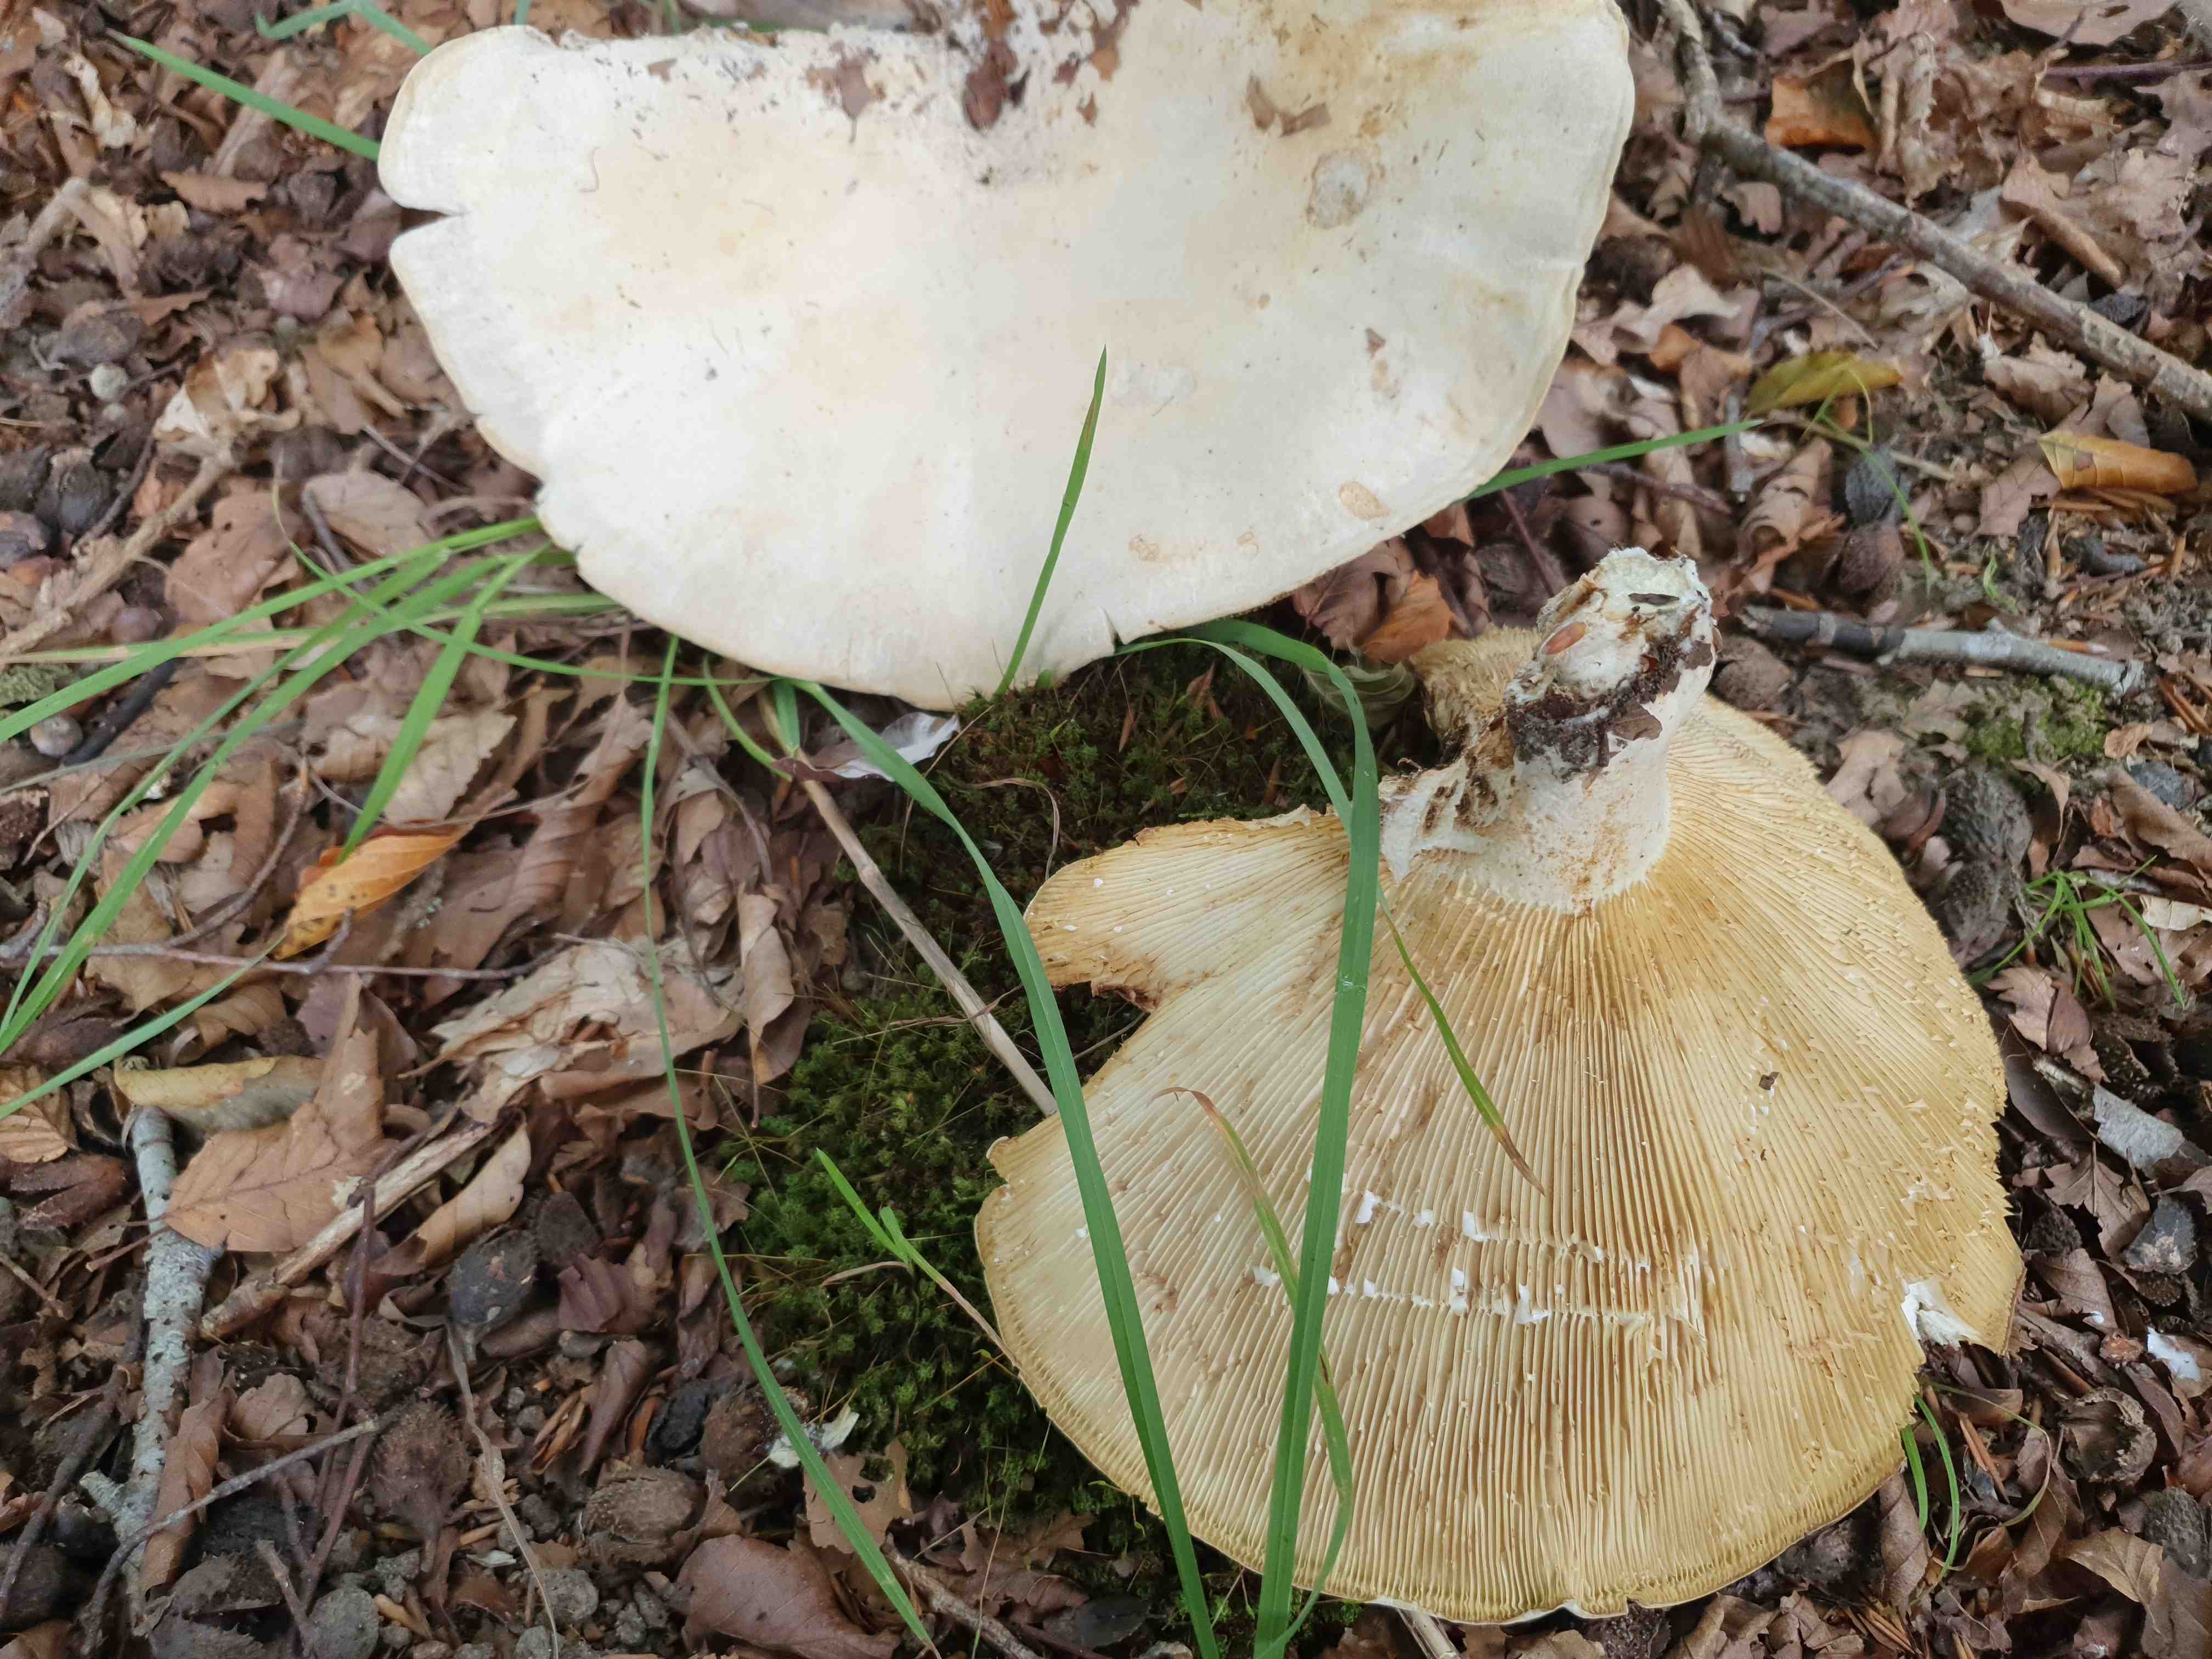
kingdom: Fungi
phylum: Basidiomycota
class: Agaricomycetes
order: Russulales
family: Russulaceae
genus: Lactifluus
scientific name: Lactifluus
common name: mælkehat
